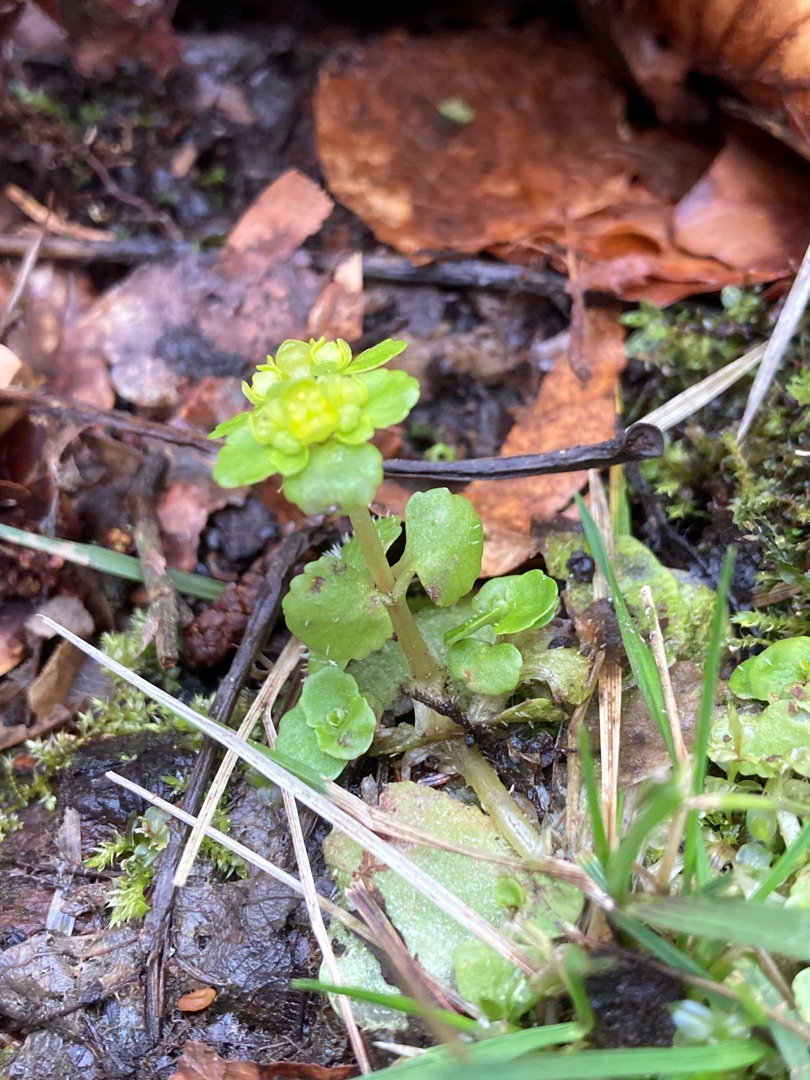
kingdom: Plantae
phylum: Tracheophyta
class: Magnoliopsida
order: Saxifragales
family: Saxifragaceae
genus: Chrysosplenium
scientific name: Chrysosplenium oppositifolium
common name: Småbladet milturt
